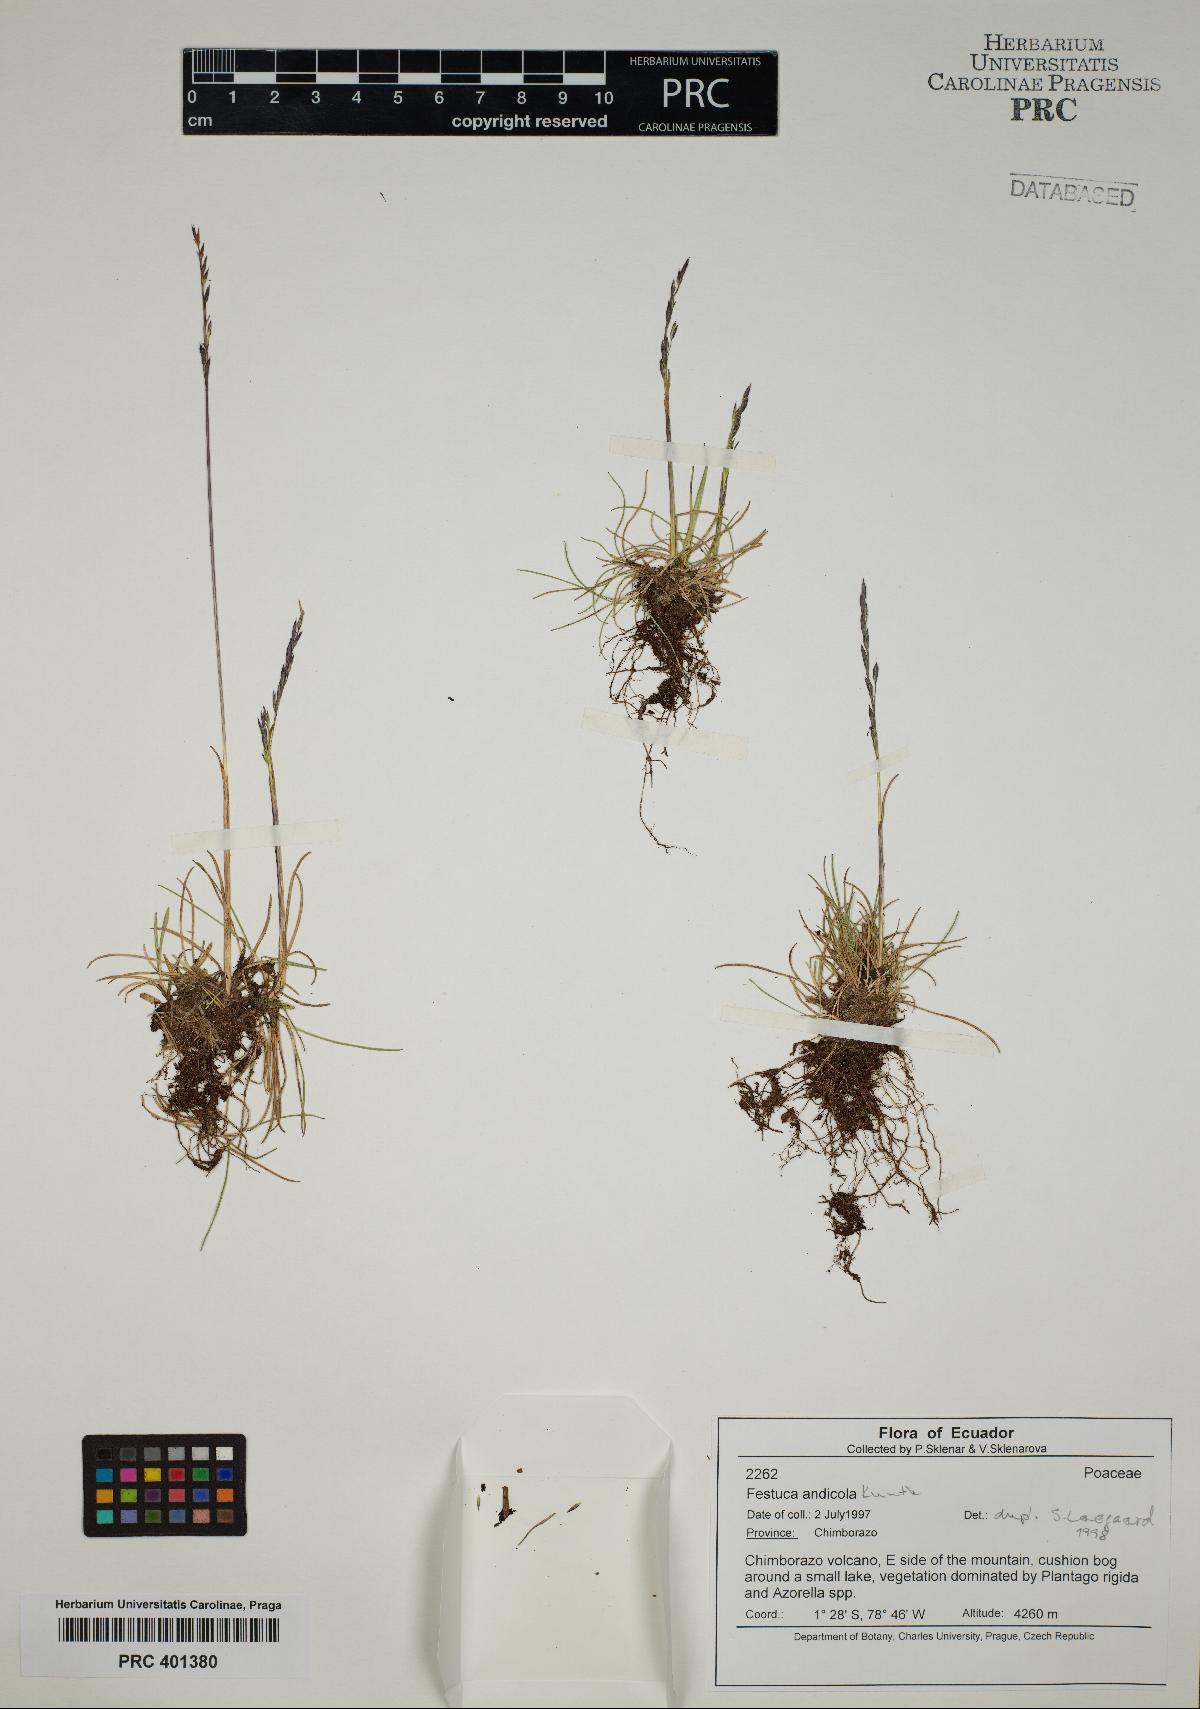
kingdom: Plantae
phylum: Tracheophyta
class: Liliopsida
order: Poales
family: Poaceae
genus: Festuca
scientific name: Festuca andicola
